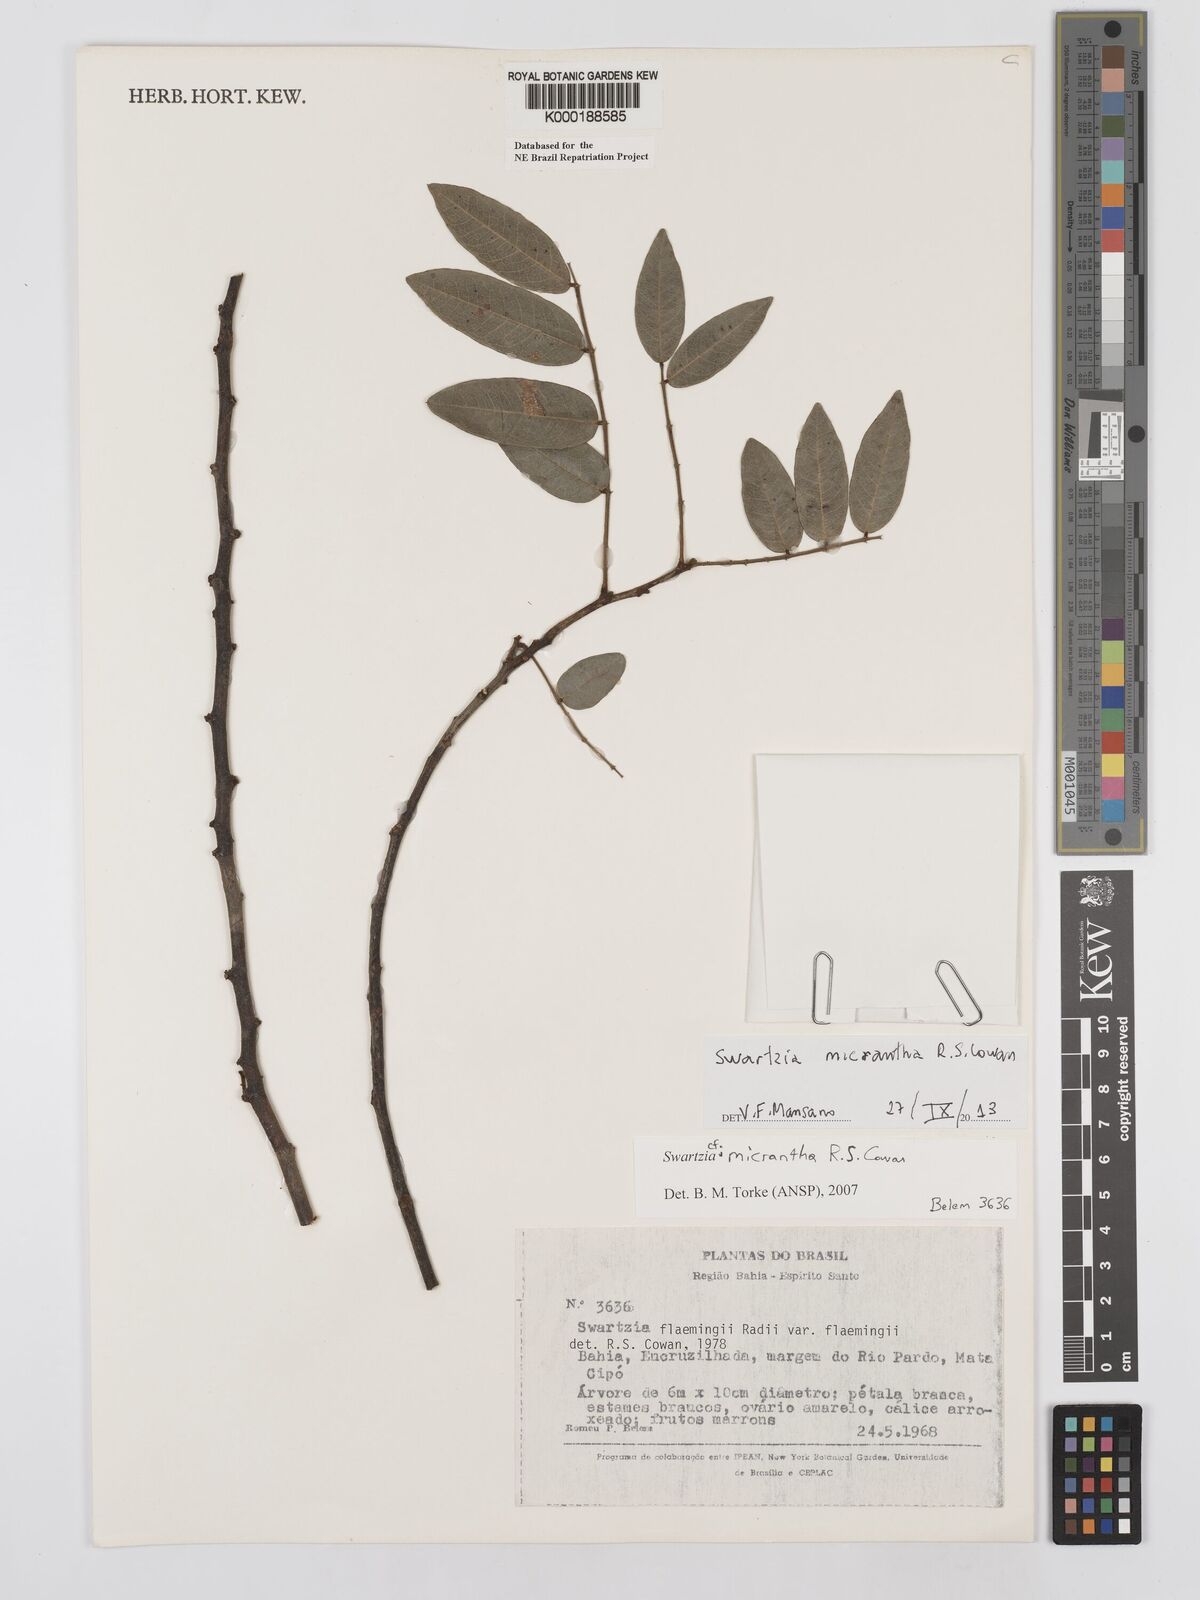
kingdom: Plantae
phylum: Tracheophyta
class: Magnoliopsida
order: Fabales
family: Fabaceae
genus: Swartzia
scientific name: Swartzia micrantha
